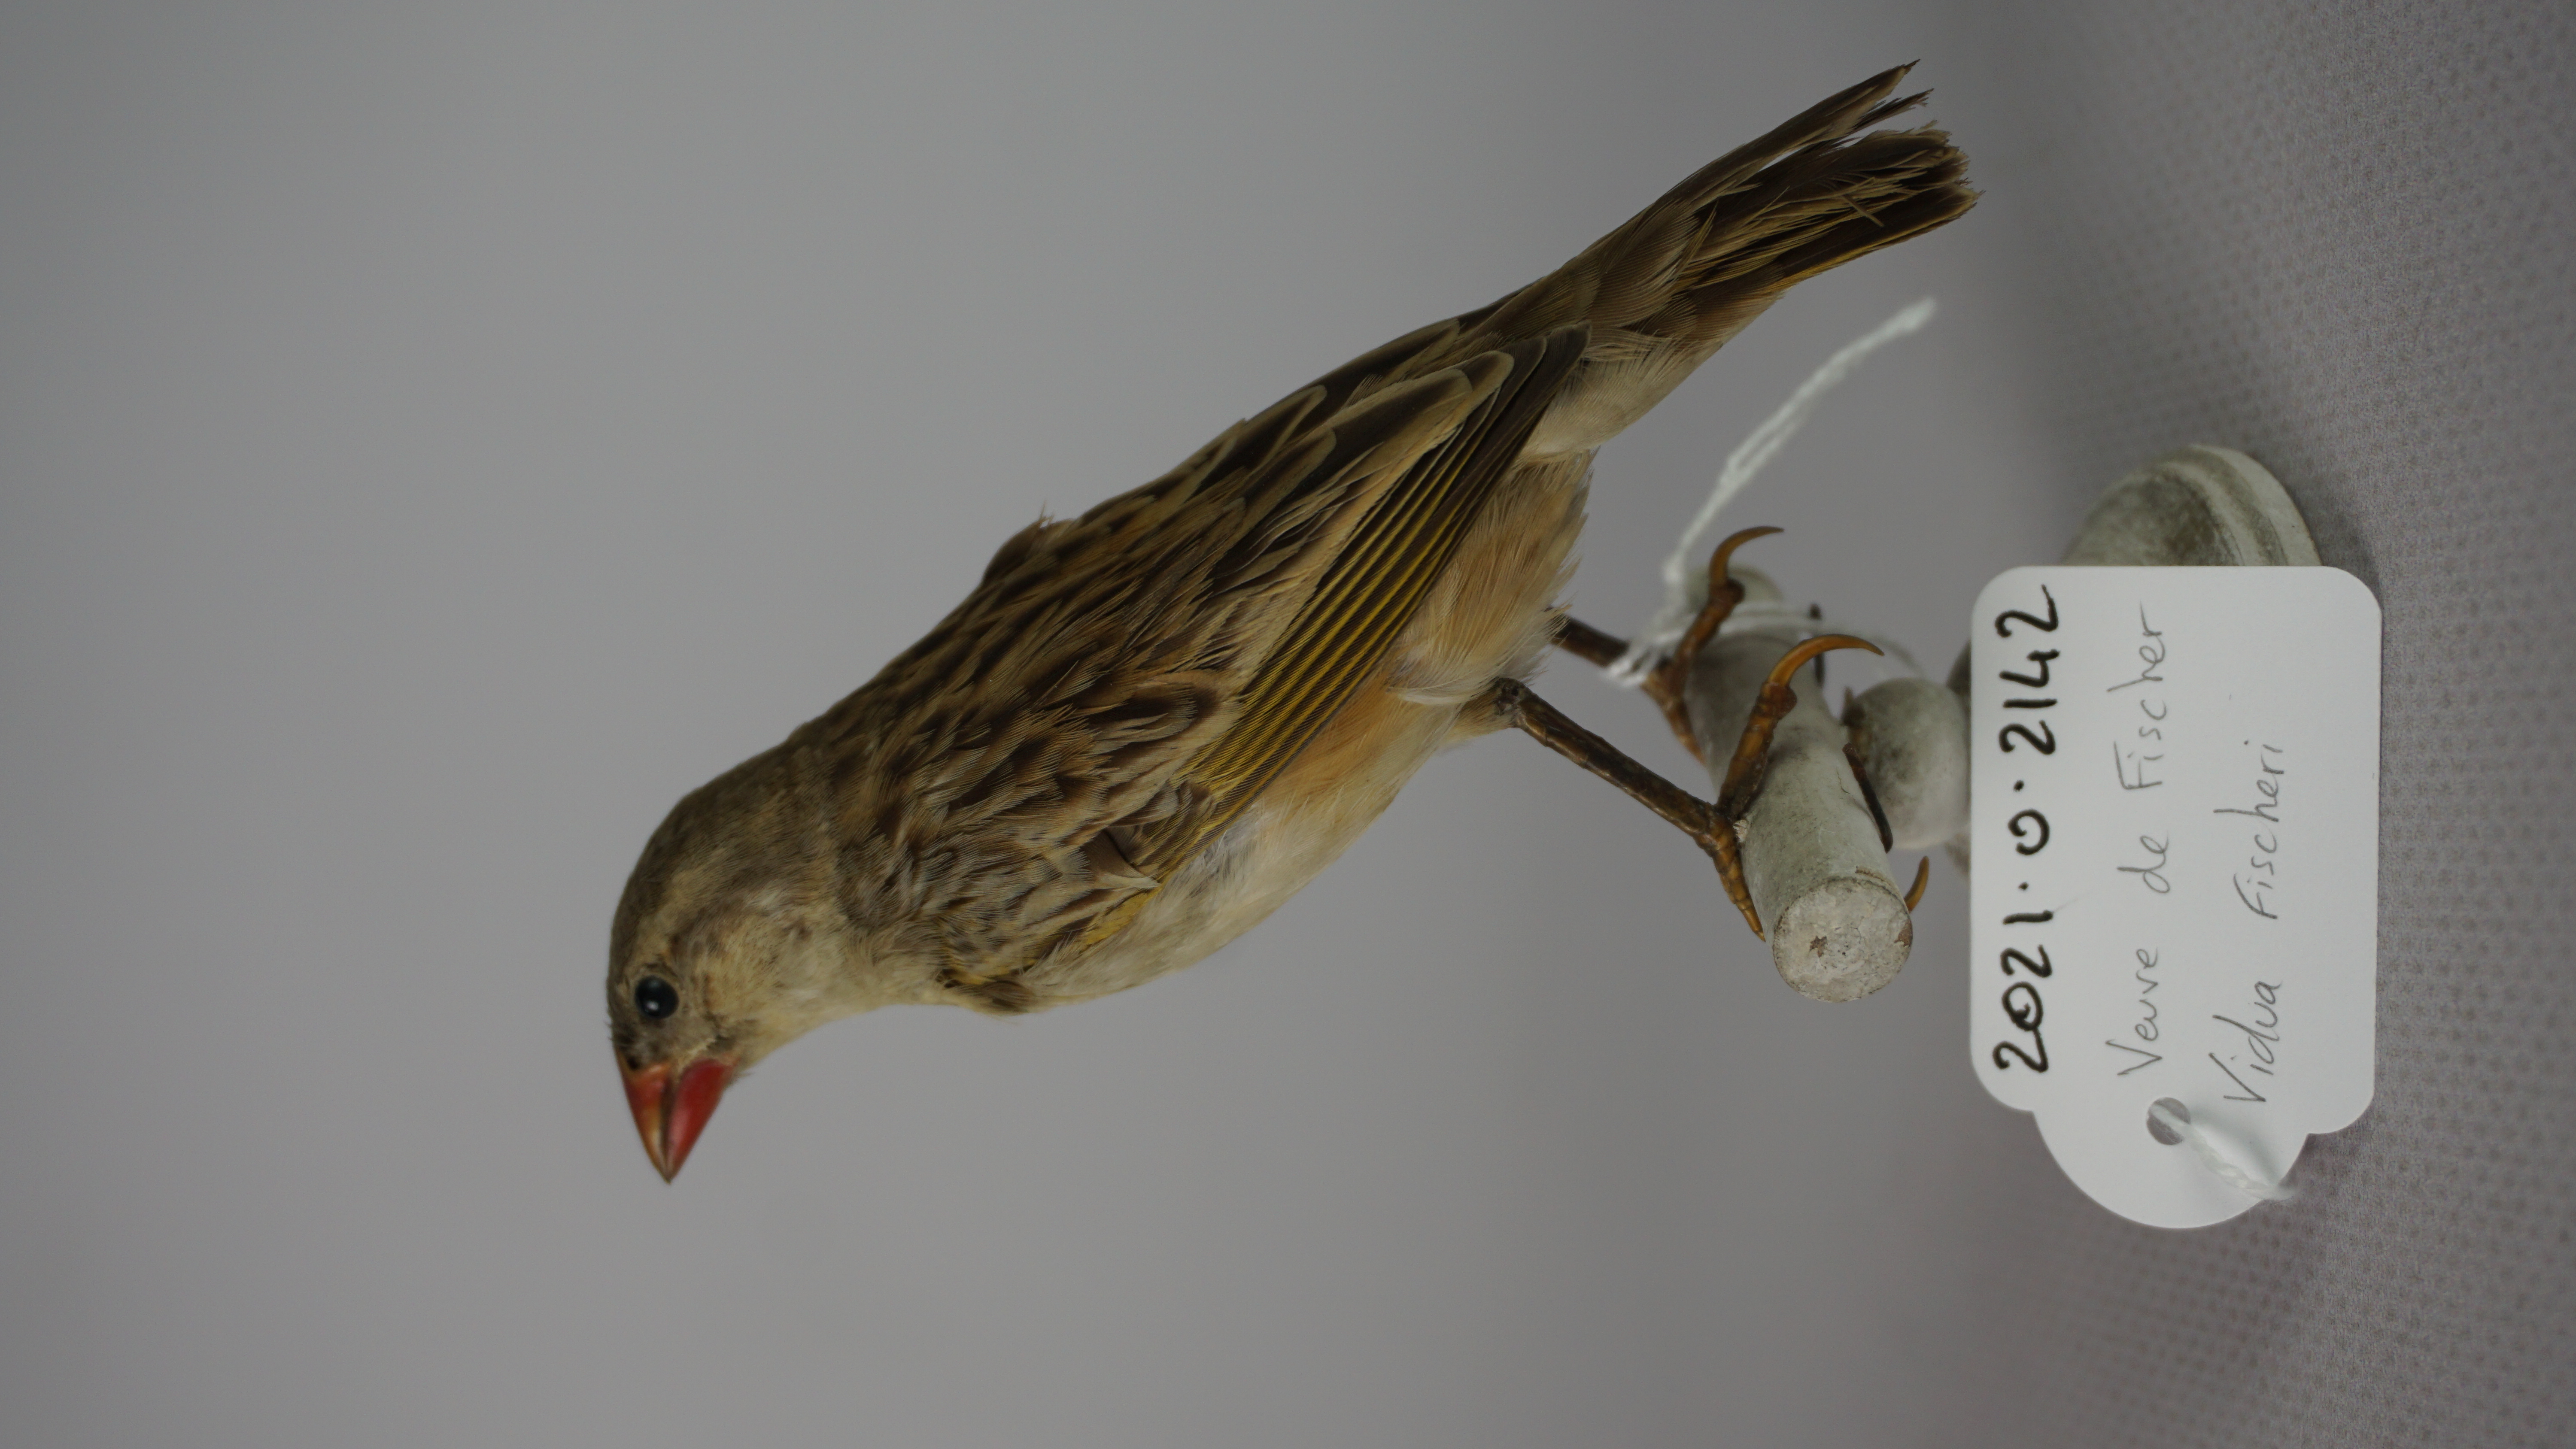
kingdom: Animalia
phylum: Chordata
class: Aves
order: Passeriformes
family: Viduidae
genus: Vidua
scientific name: Vidua fischeri
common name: Straw-tailed whydah
